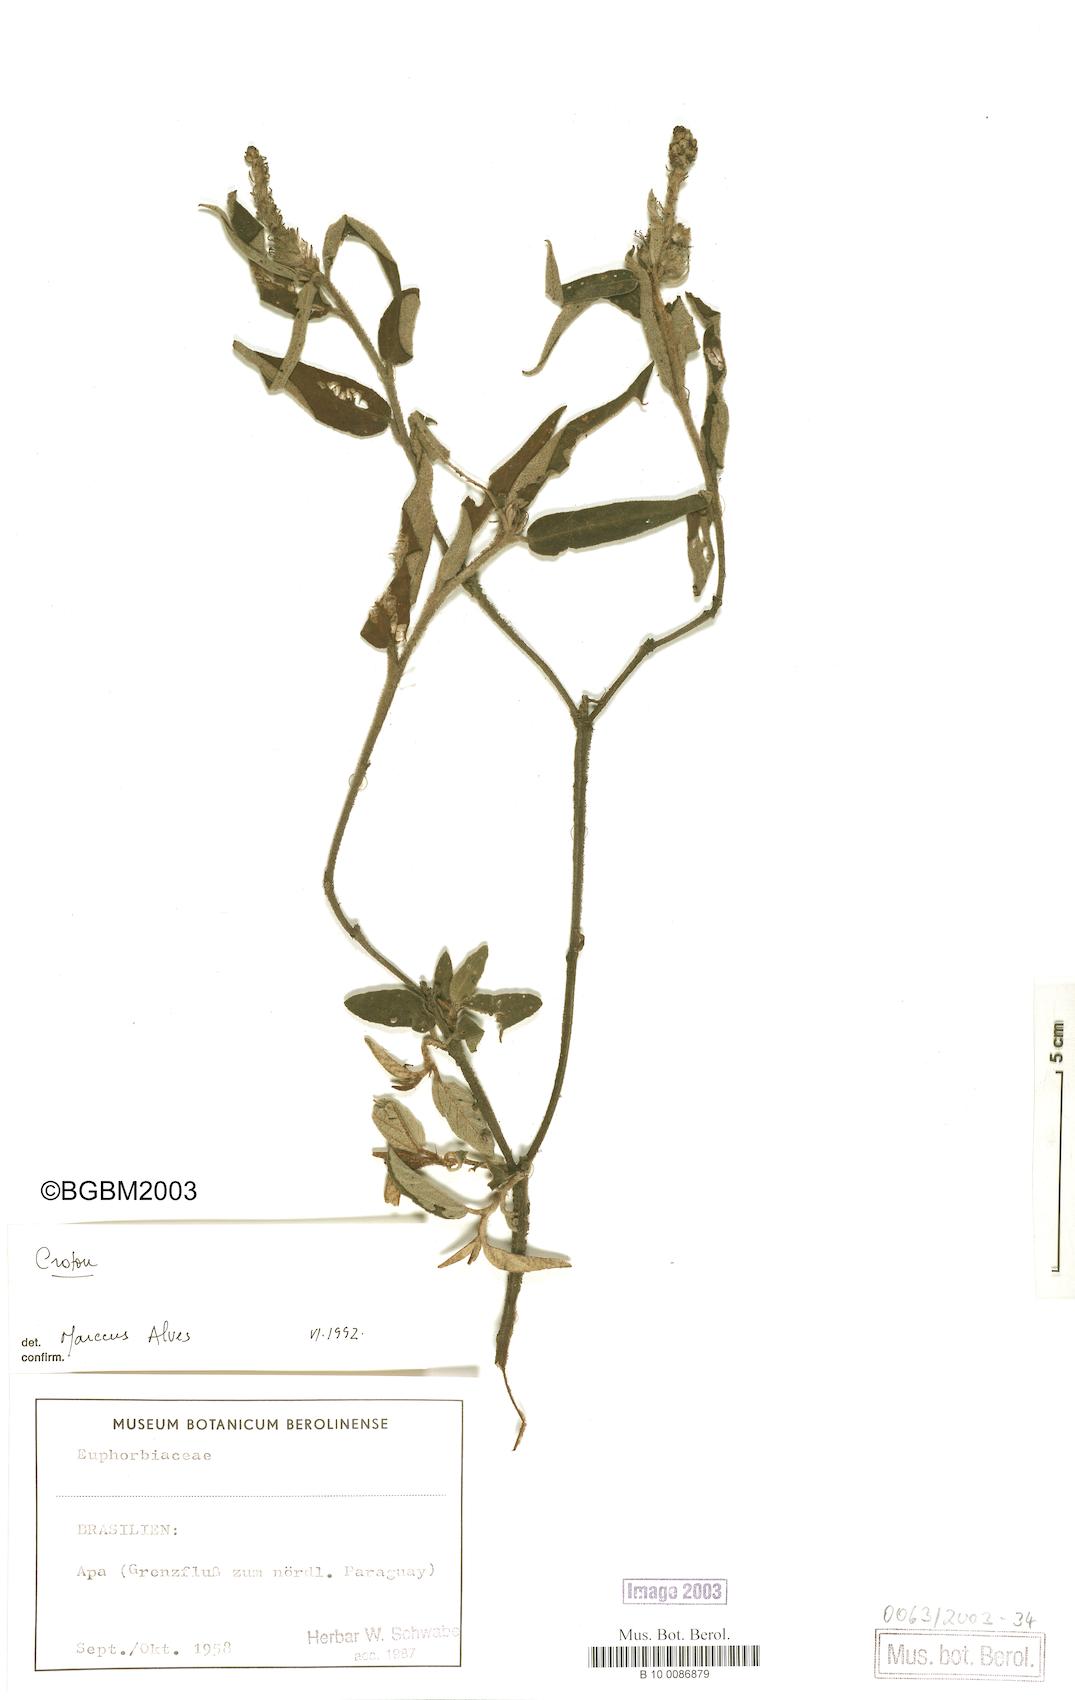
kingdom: Plantae
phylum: Tracheophyta
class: Magnoliopsida
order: Malpighiales
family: Euphorbiaceae
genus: Croton
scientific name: Croton
